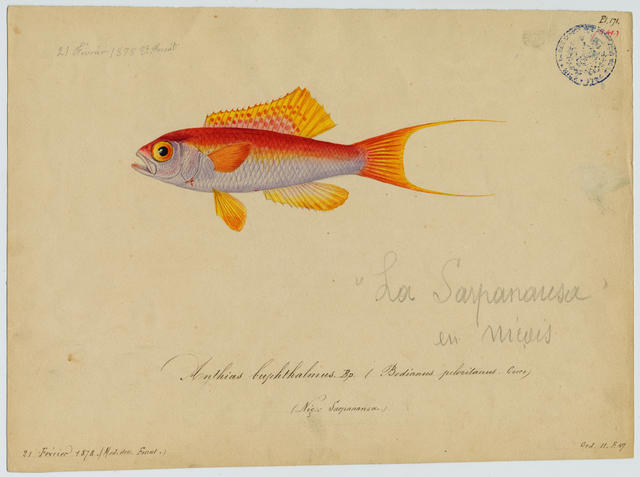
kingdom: Animalia
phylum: Chordata
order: Perciformes
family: Callanthiidae
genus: Callanthias
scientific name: Callanthias ruber
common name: Parrot sea perch
